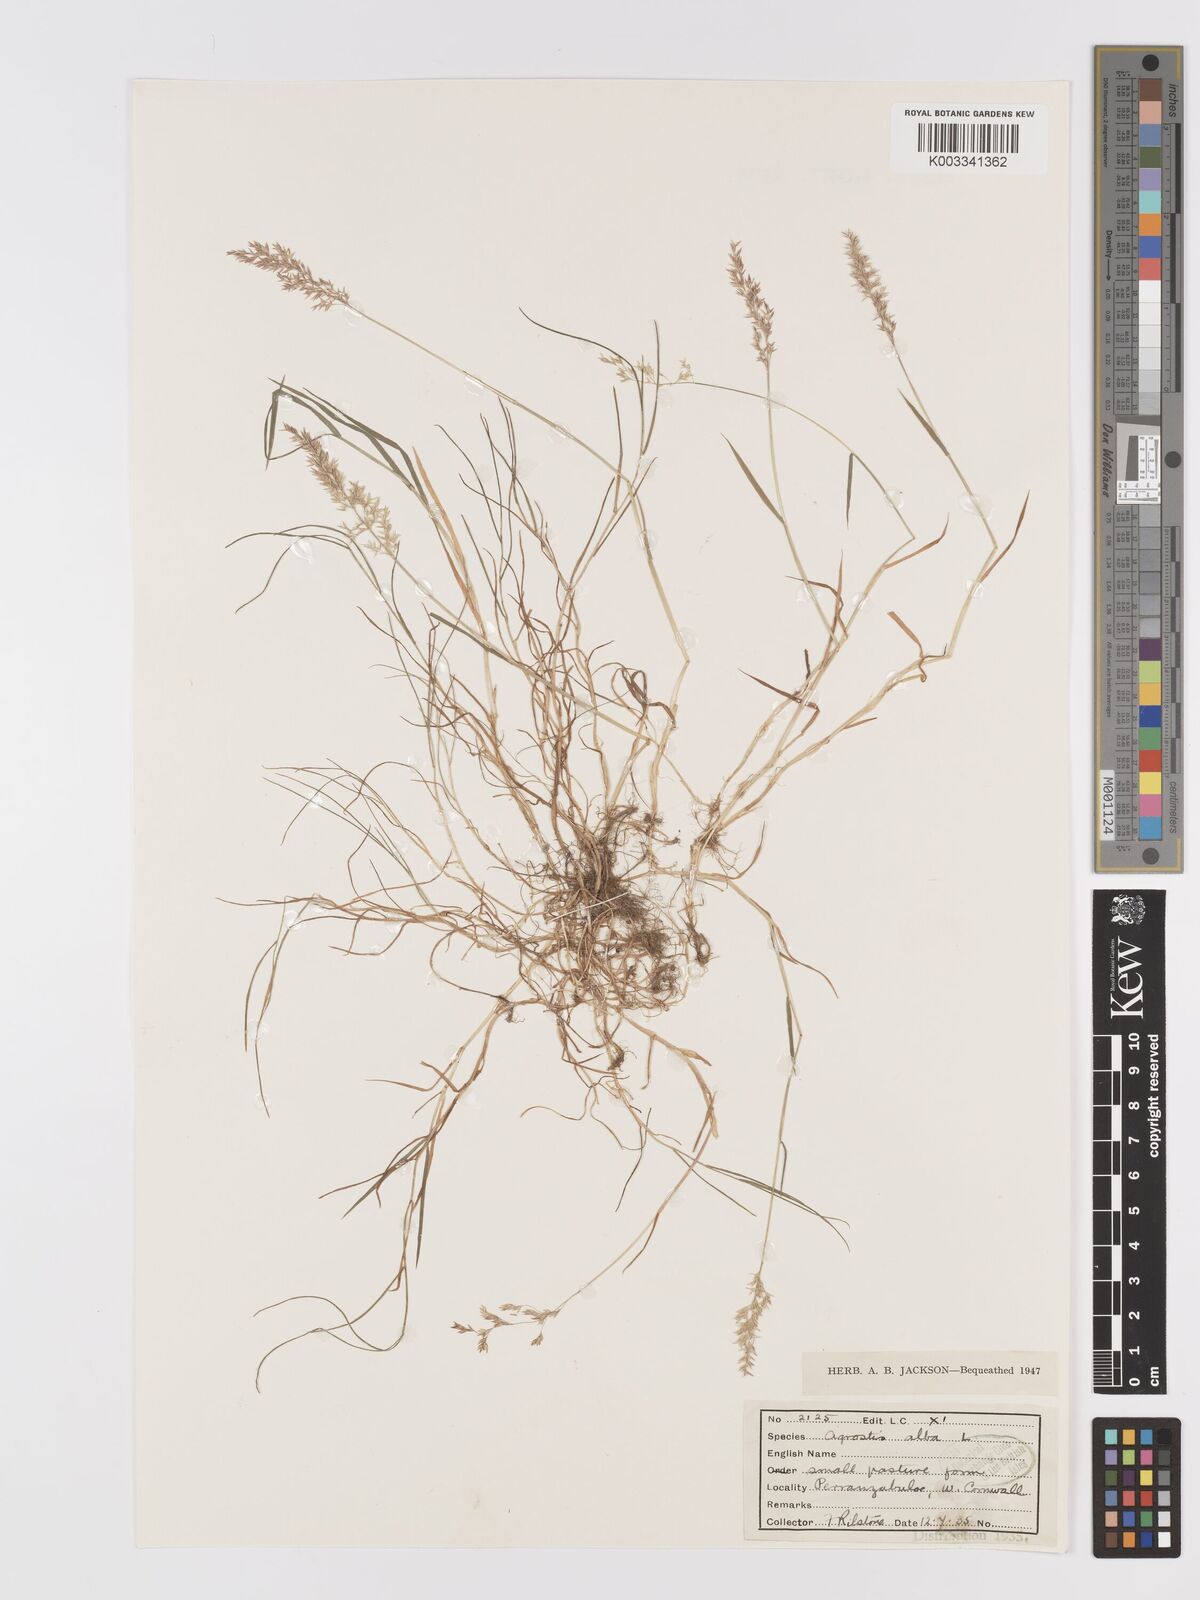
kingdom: Plantae
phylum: Tracheophyta
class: Liliopsida
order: Poales
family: Poaceae
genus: Agrostis
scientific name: Agrostis stolonifera
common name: Creeping bentgrass
